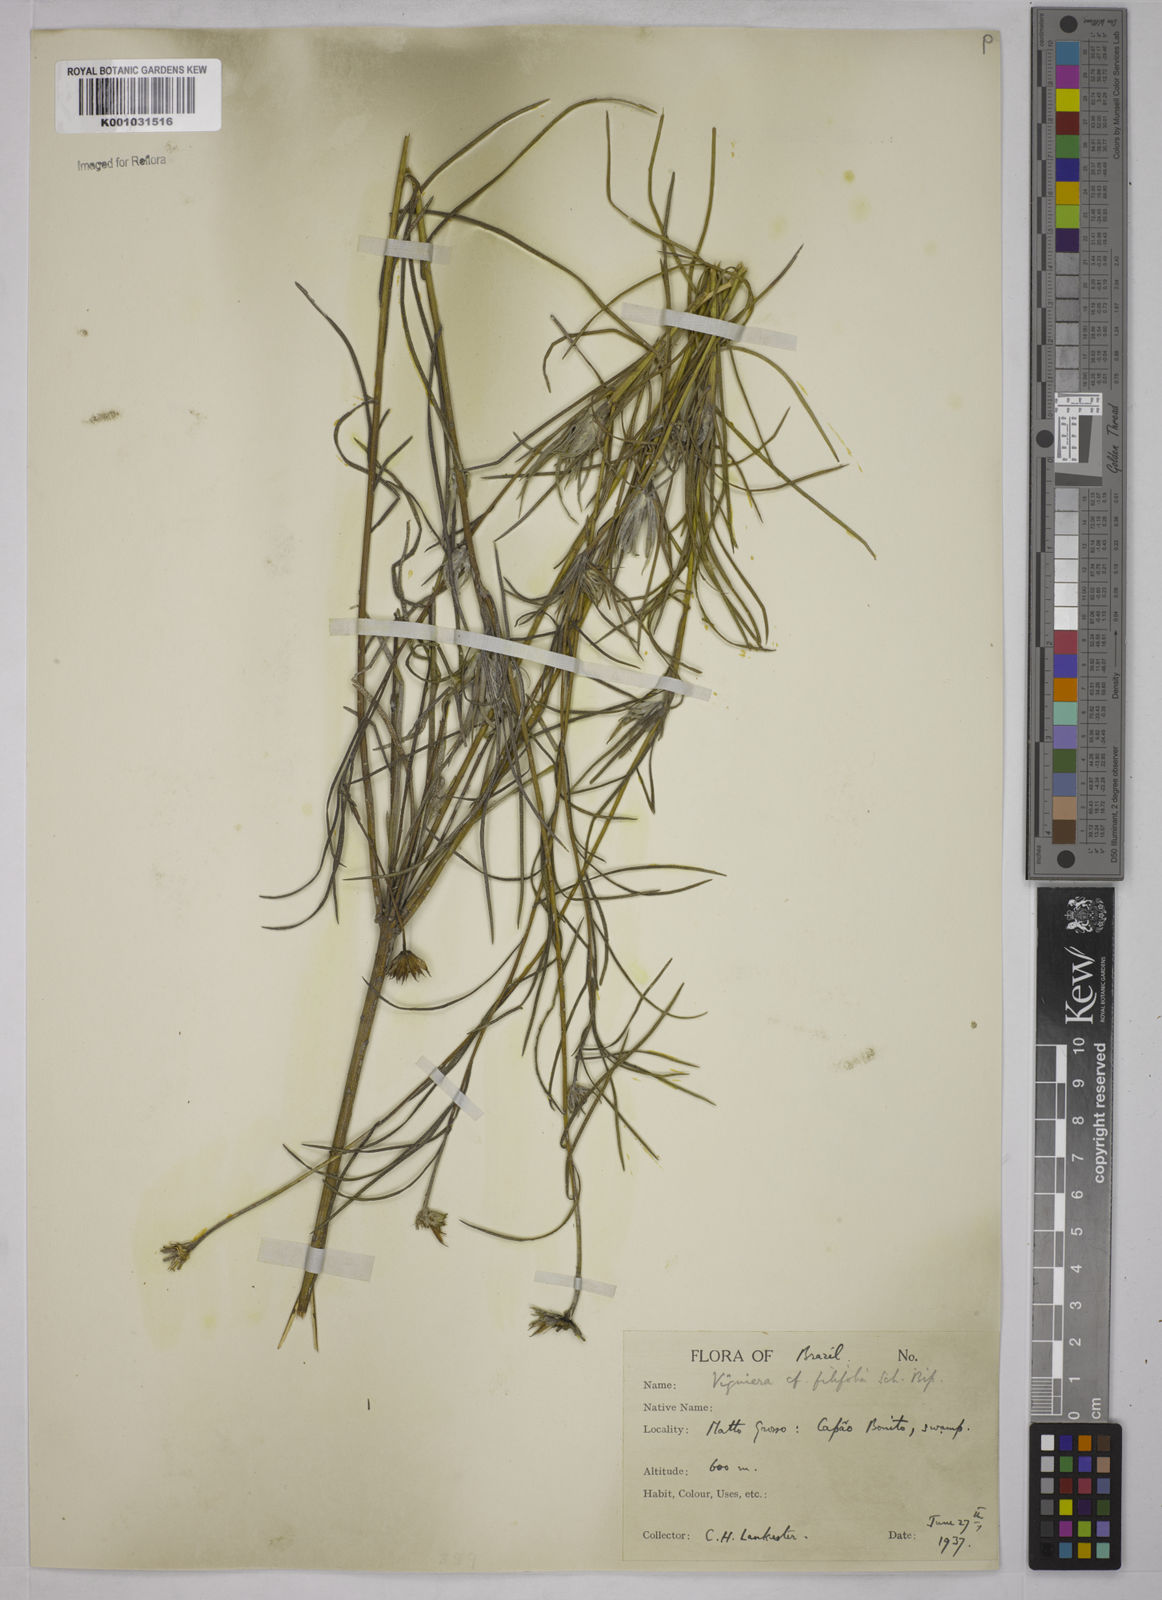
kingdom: Plantae
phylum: Tracheophyta
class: Magnoliopsida
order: Asterales
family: Asteraceae
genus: Aldama
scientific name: Aldama linearifolia
